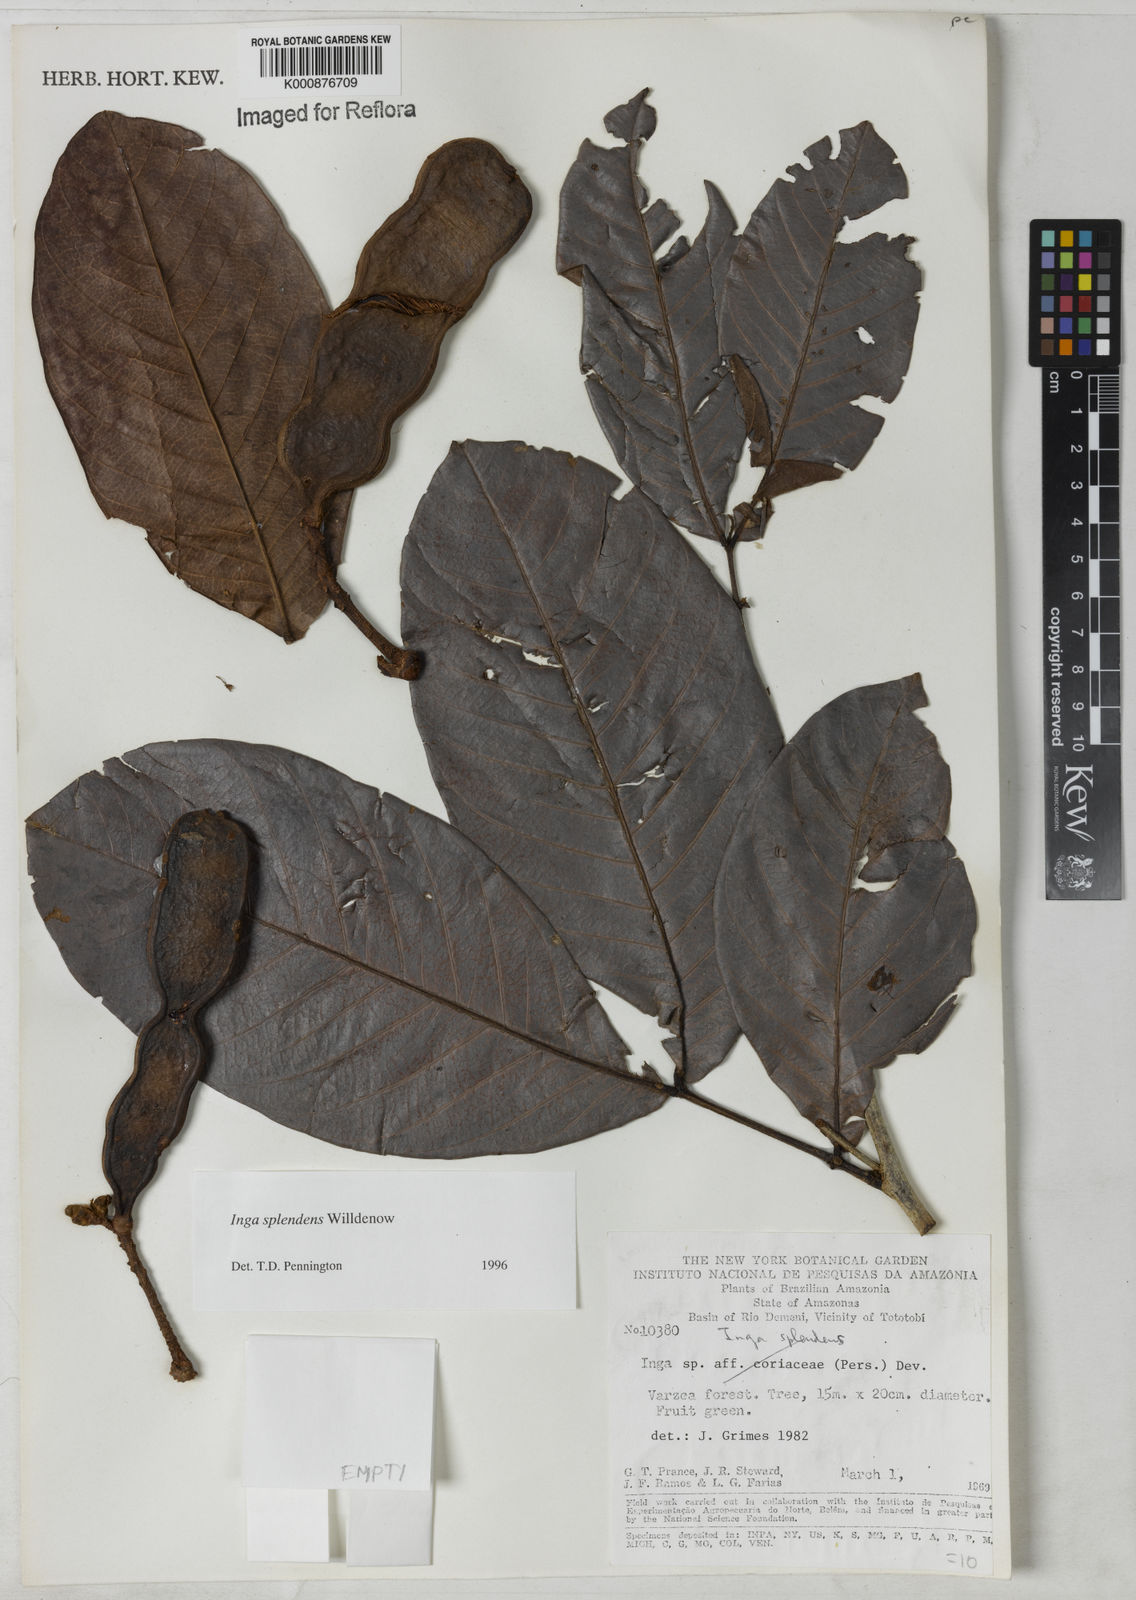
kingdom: Plantae
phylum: Tracheophyta
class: Magnoliopsida
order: Fabales
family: Fabaceae
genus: Inga
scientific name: Inga splendens
